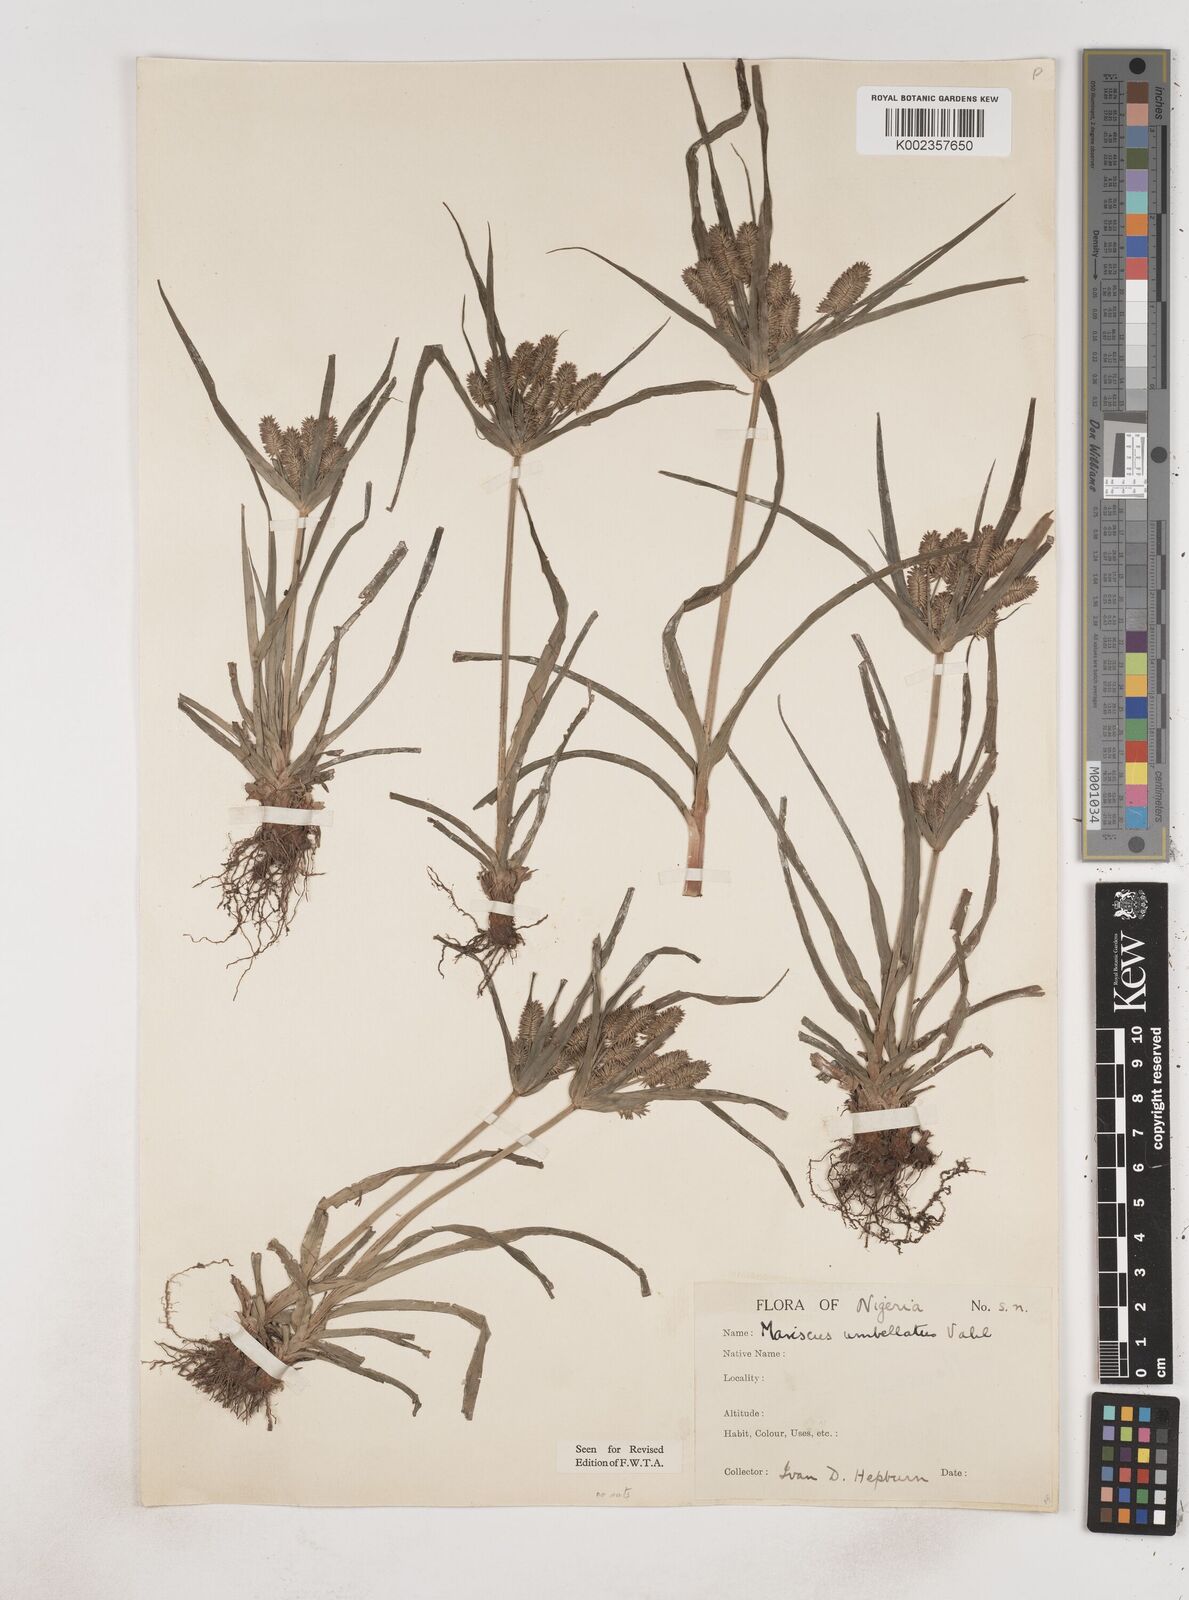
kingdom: Plantae
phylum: Tracheophyta
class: Liliopsida
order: Poales
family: Cyperaceae
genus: Cyperus
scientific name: Cyperus cyperoides
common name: Pacific island flat sedge
